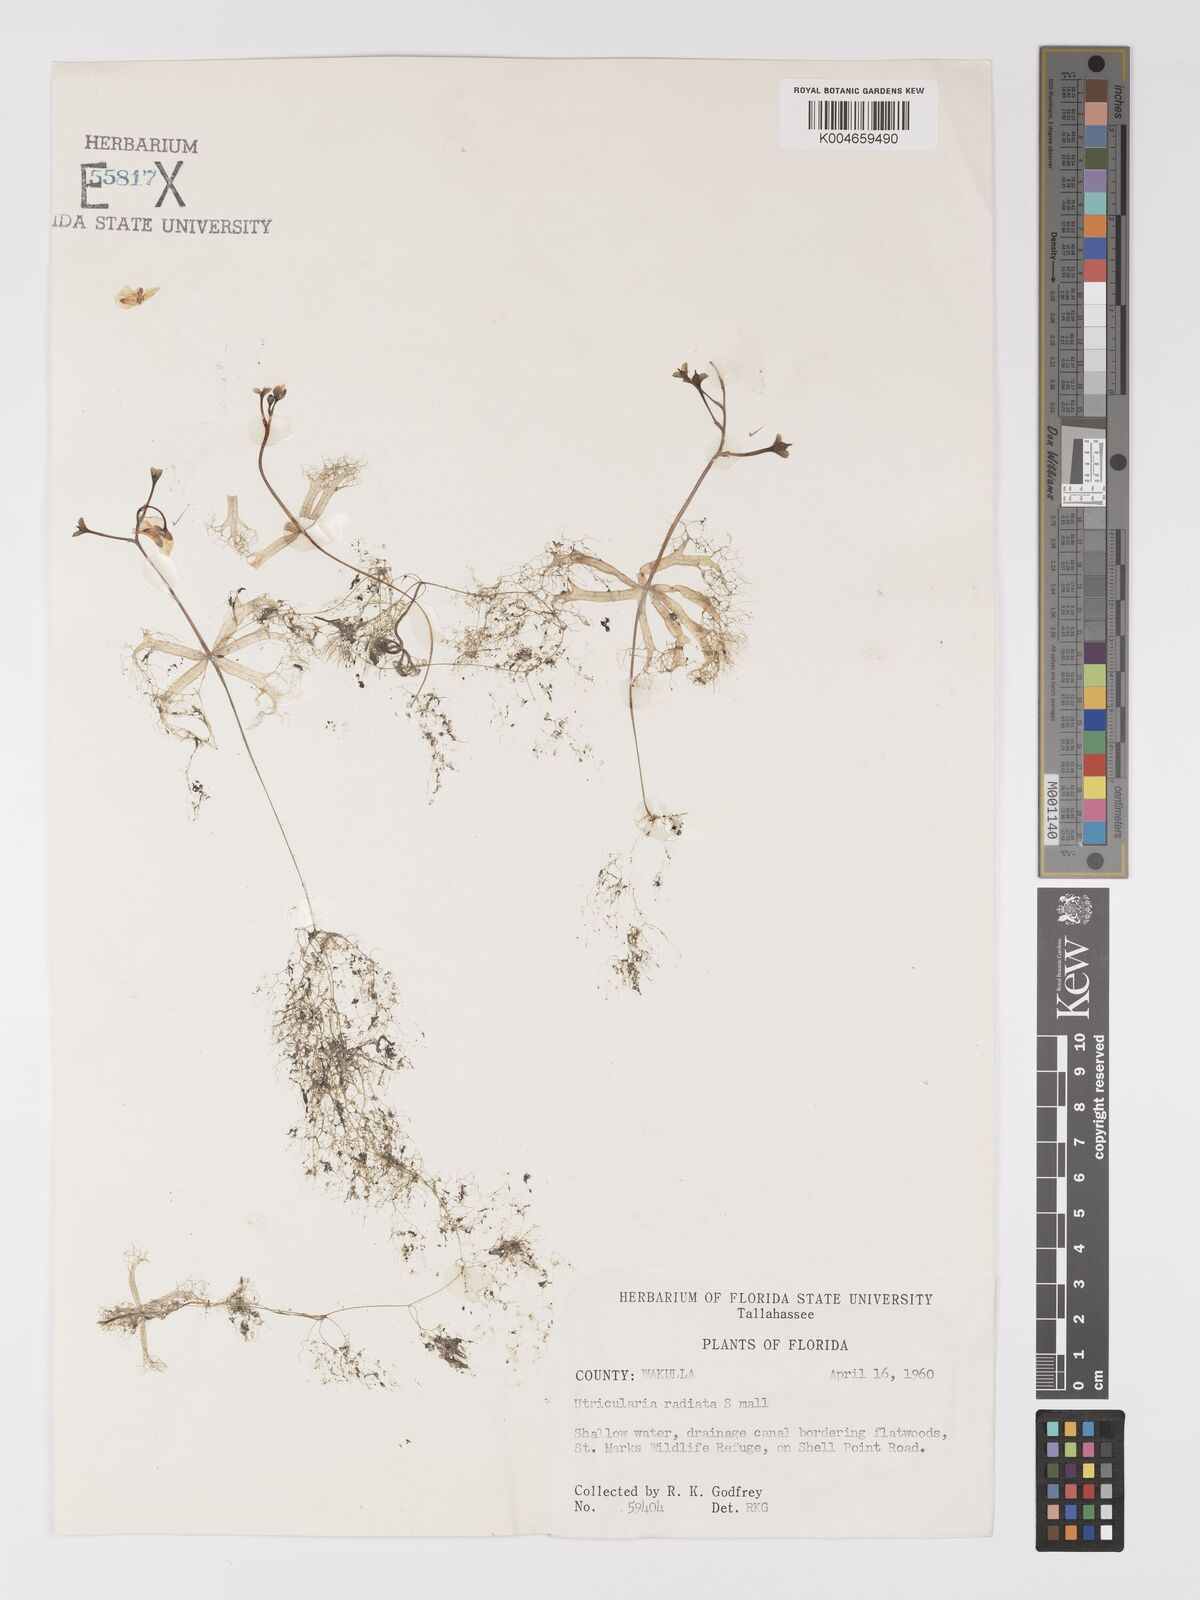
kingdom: Plantae
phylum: Tracheophyta
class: Magnoliopsida
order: Lamiales
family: Lentibulariaceae
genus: Utricularia
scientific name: Utricularia radiata
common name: Floating bladderwort
